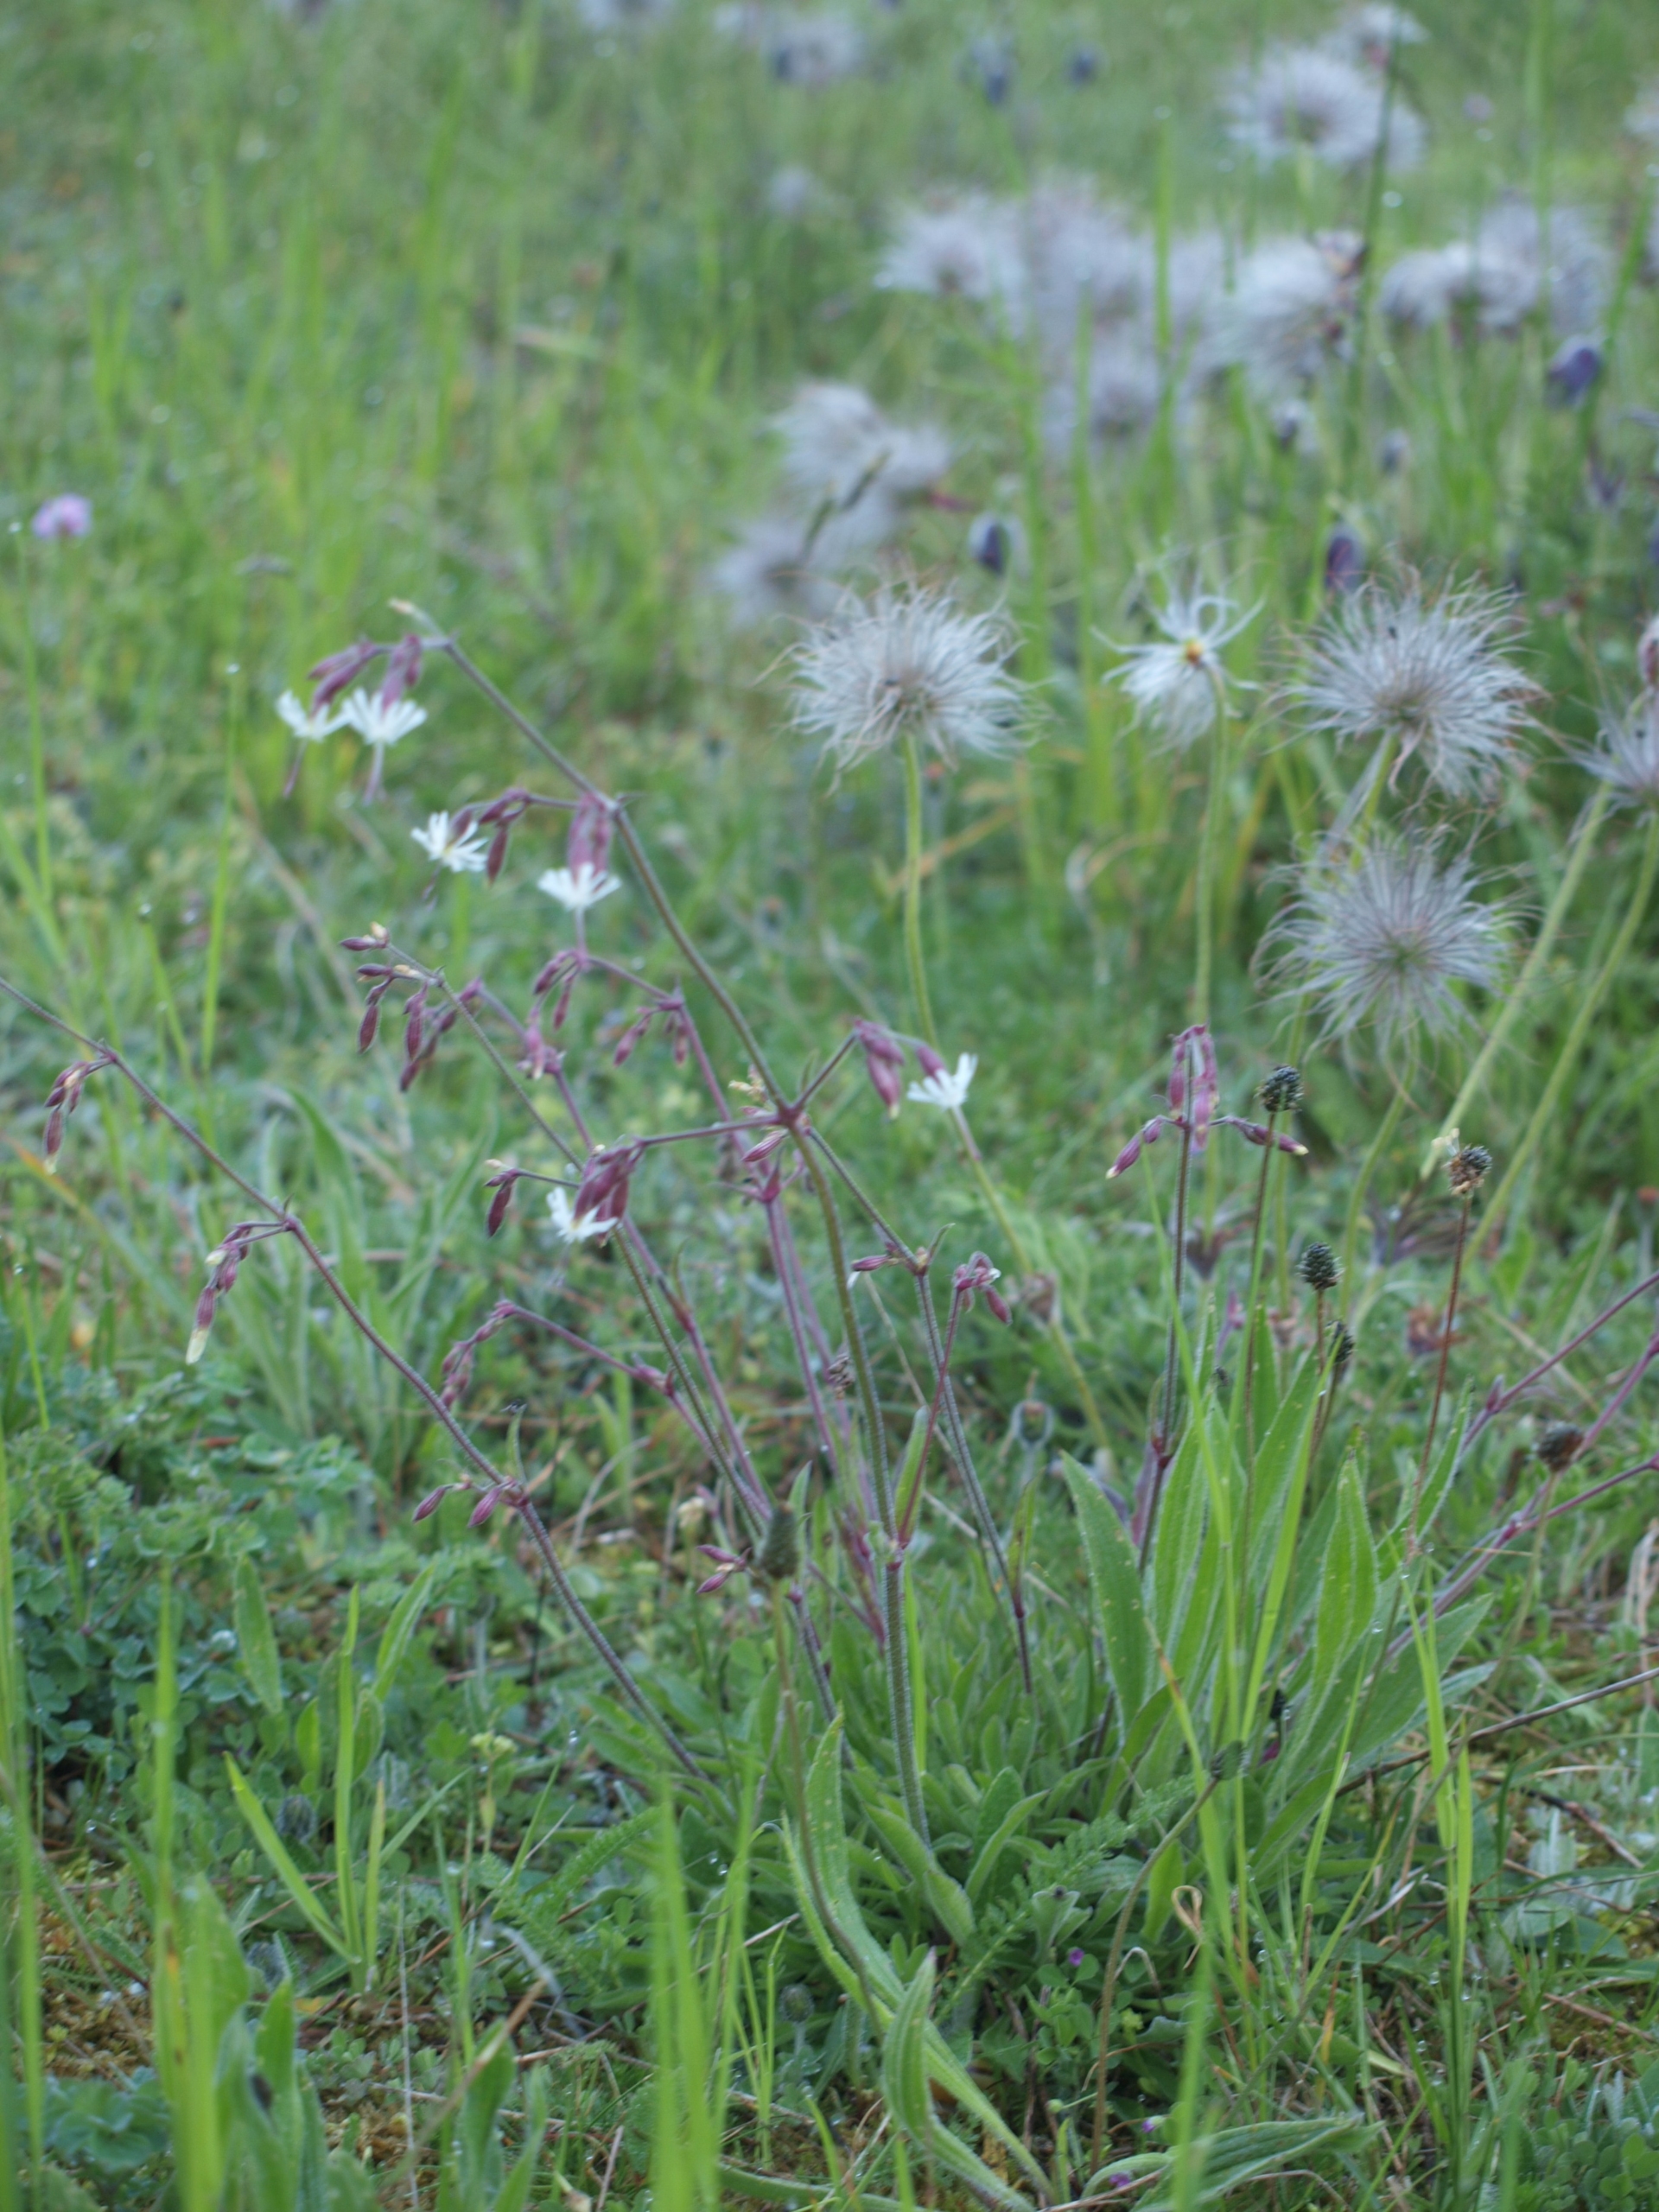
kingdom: Plantae
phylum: Tracheophyta
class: Magnoliopsida
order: Caryophyllales
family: Caryophyllaceae
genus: Silene
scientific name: Silene nutans
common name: Nikkende limurt
